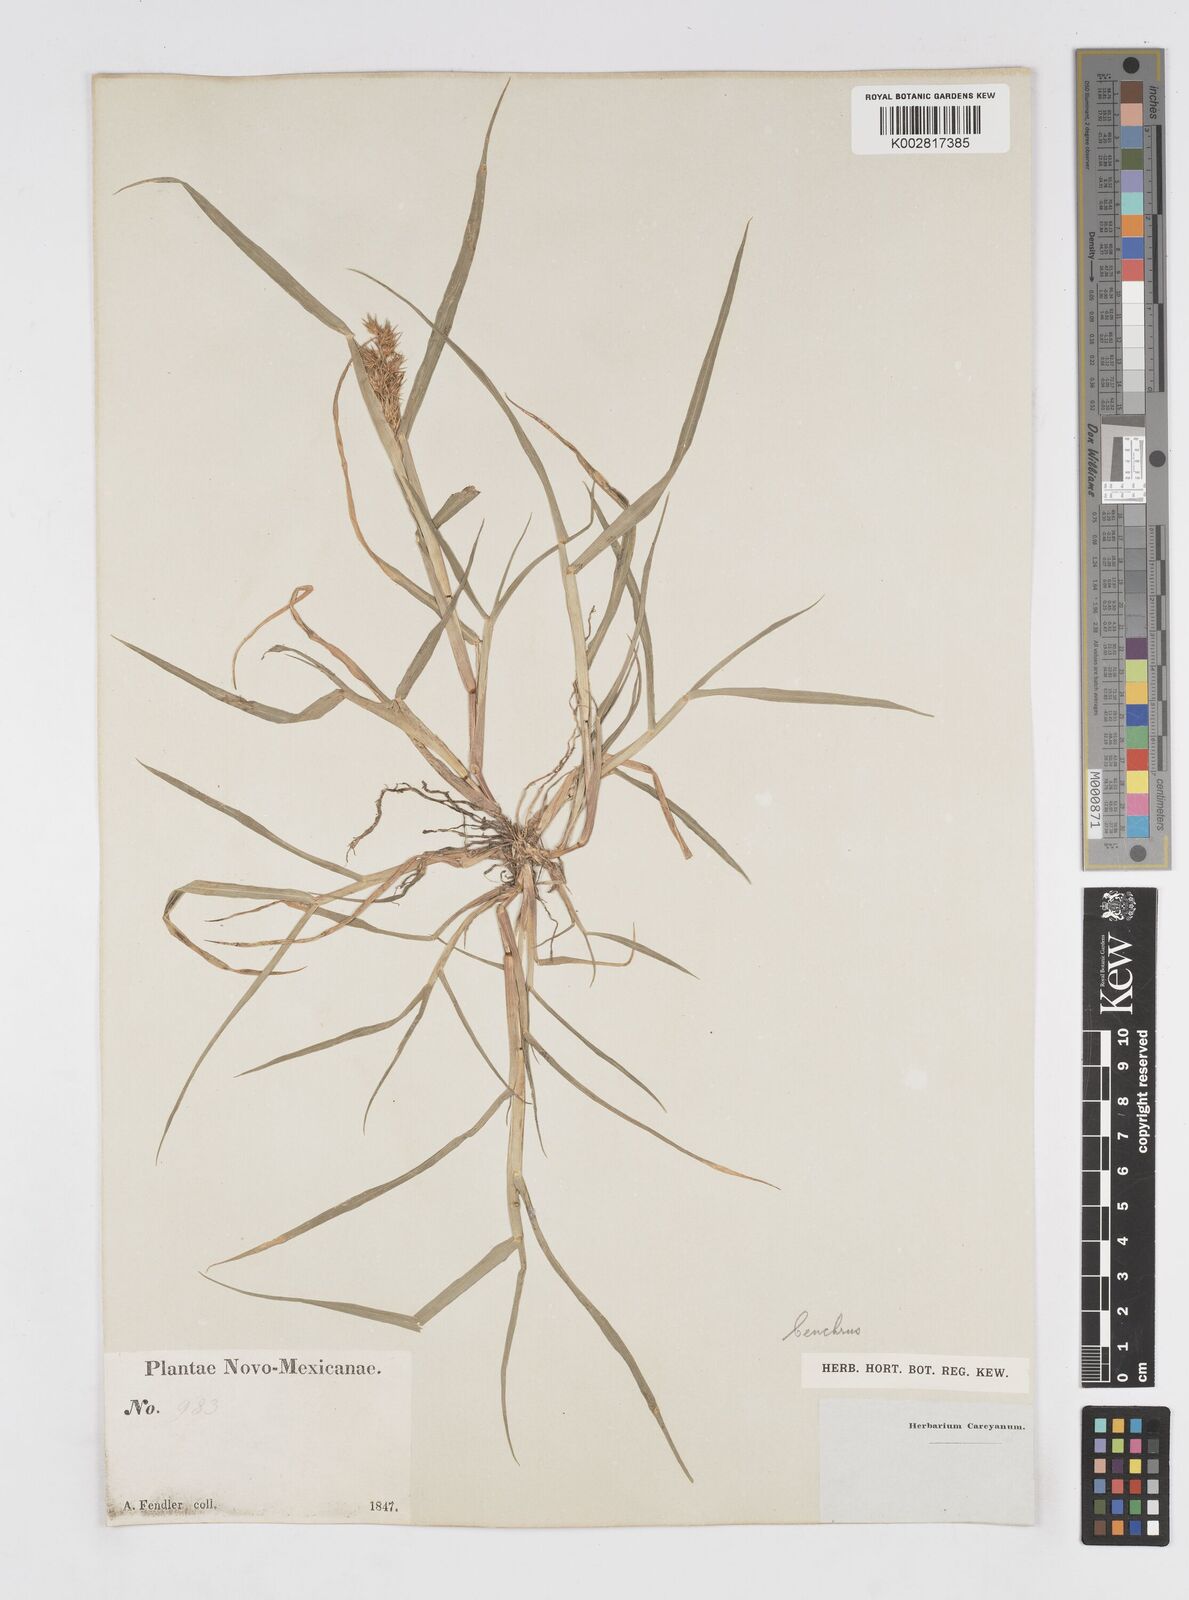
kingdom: Plantae
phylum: Tracheophyta
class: Liliopsida
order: Poales
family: Poaceae
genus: Cenchrus
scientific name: Cenchrus longispinus
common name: Mat sandbur
